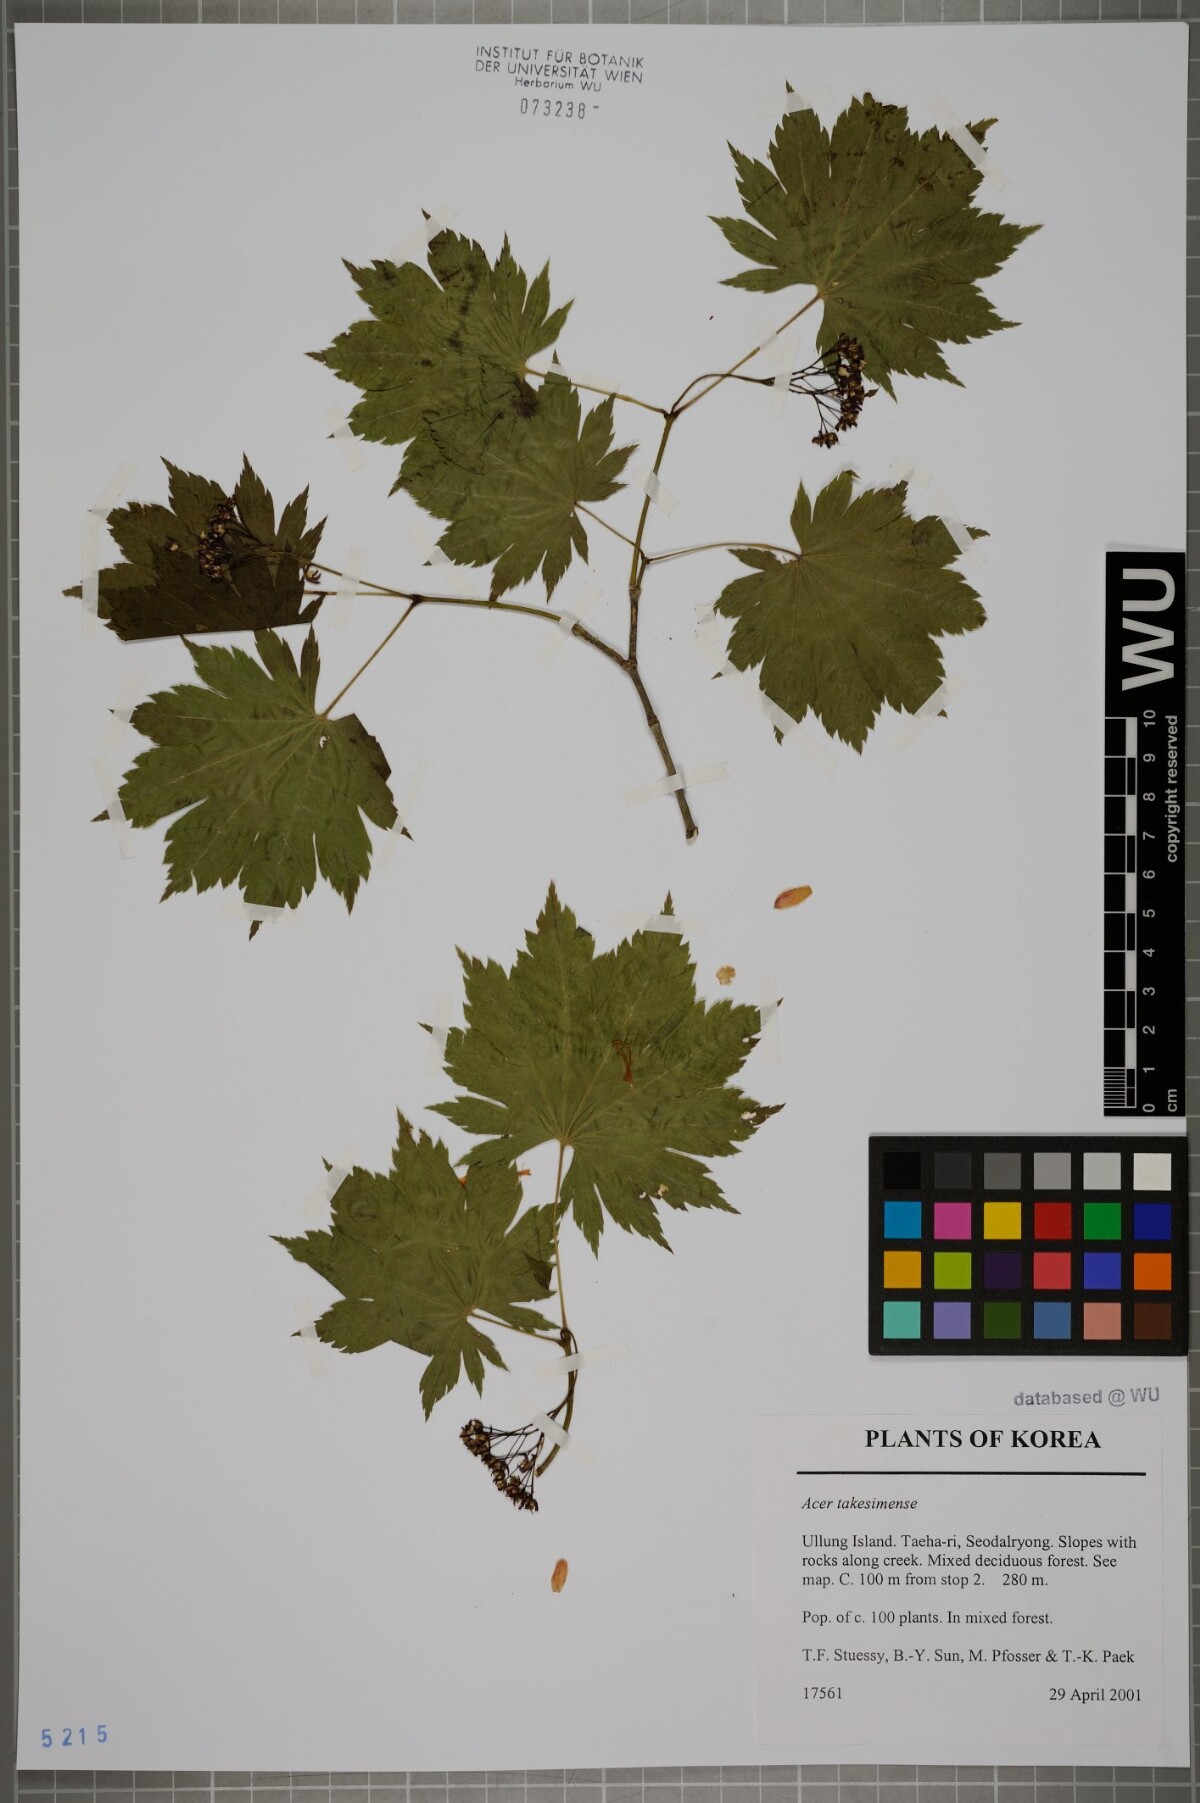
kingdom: Plantae
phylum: Tracheophyta
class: Magnoliopsida
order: Sapindales
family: Sapindaceae
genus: Acer
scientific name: Acer pseudosieboldianum
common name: Korean maple
